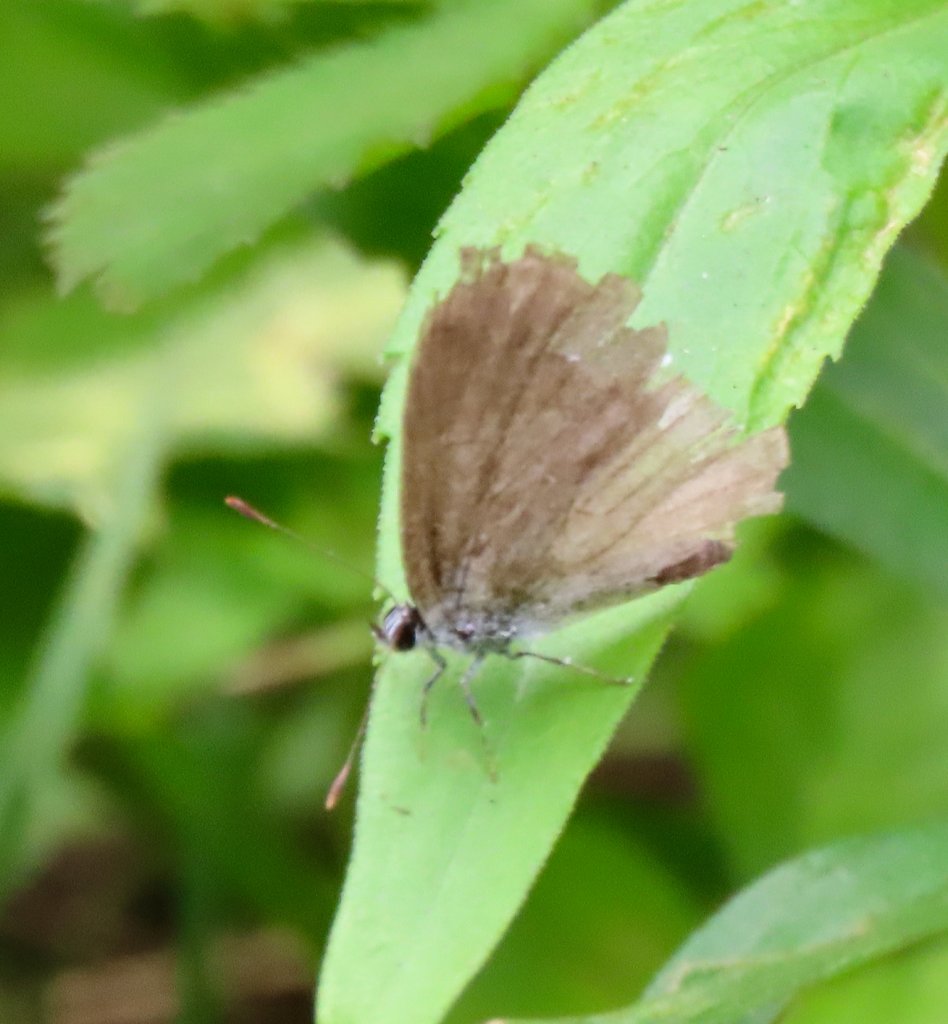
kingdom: Animalia
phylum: Arthropoda
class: Insecta
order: Lepidoptera
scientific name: Lepidoptera
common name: Butterflies
